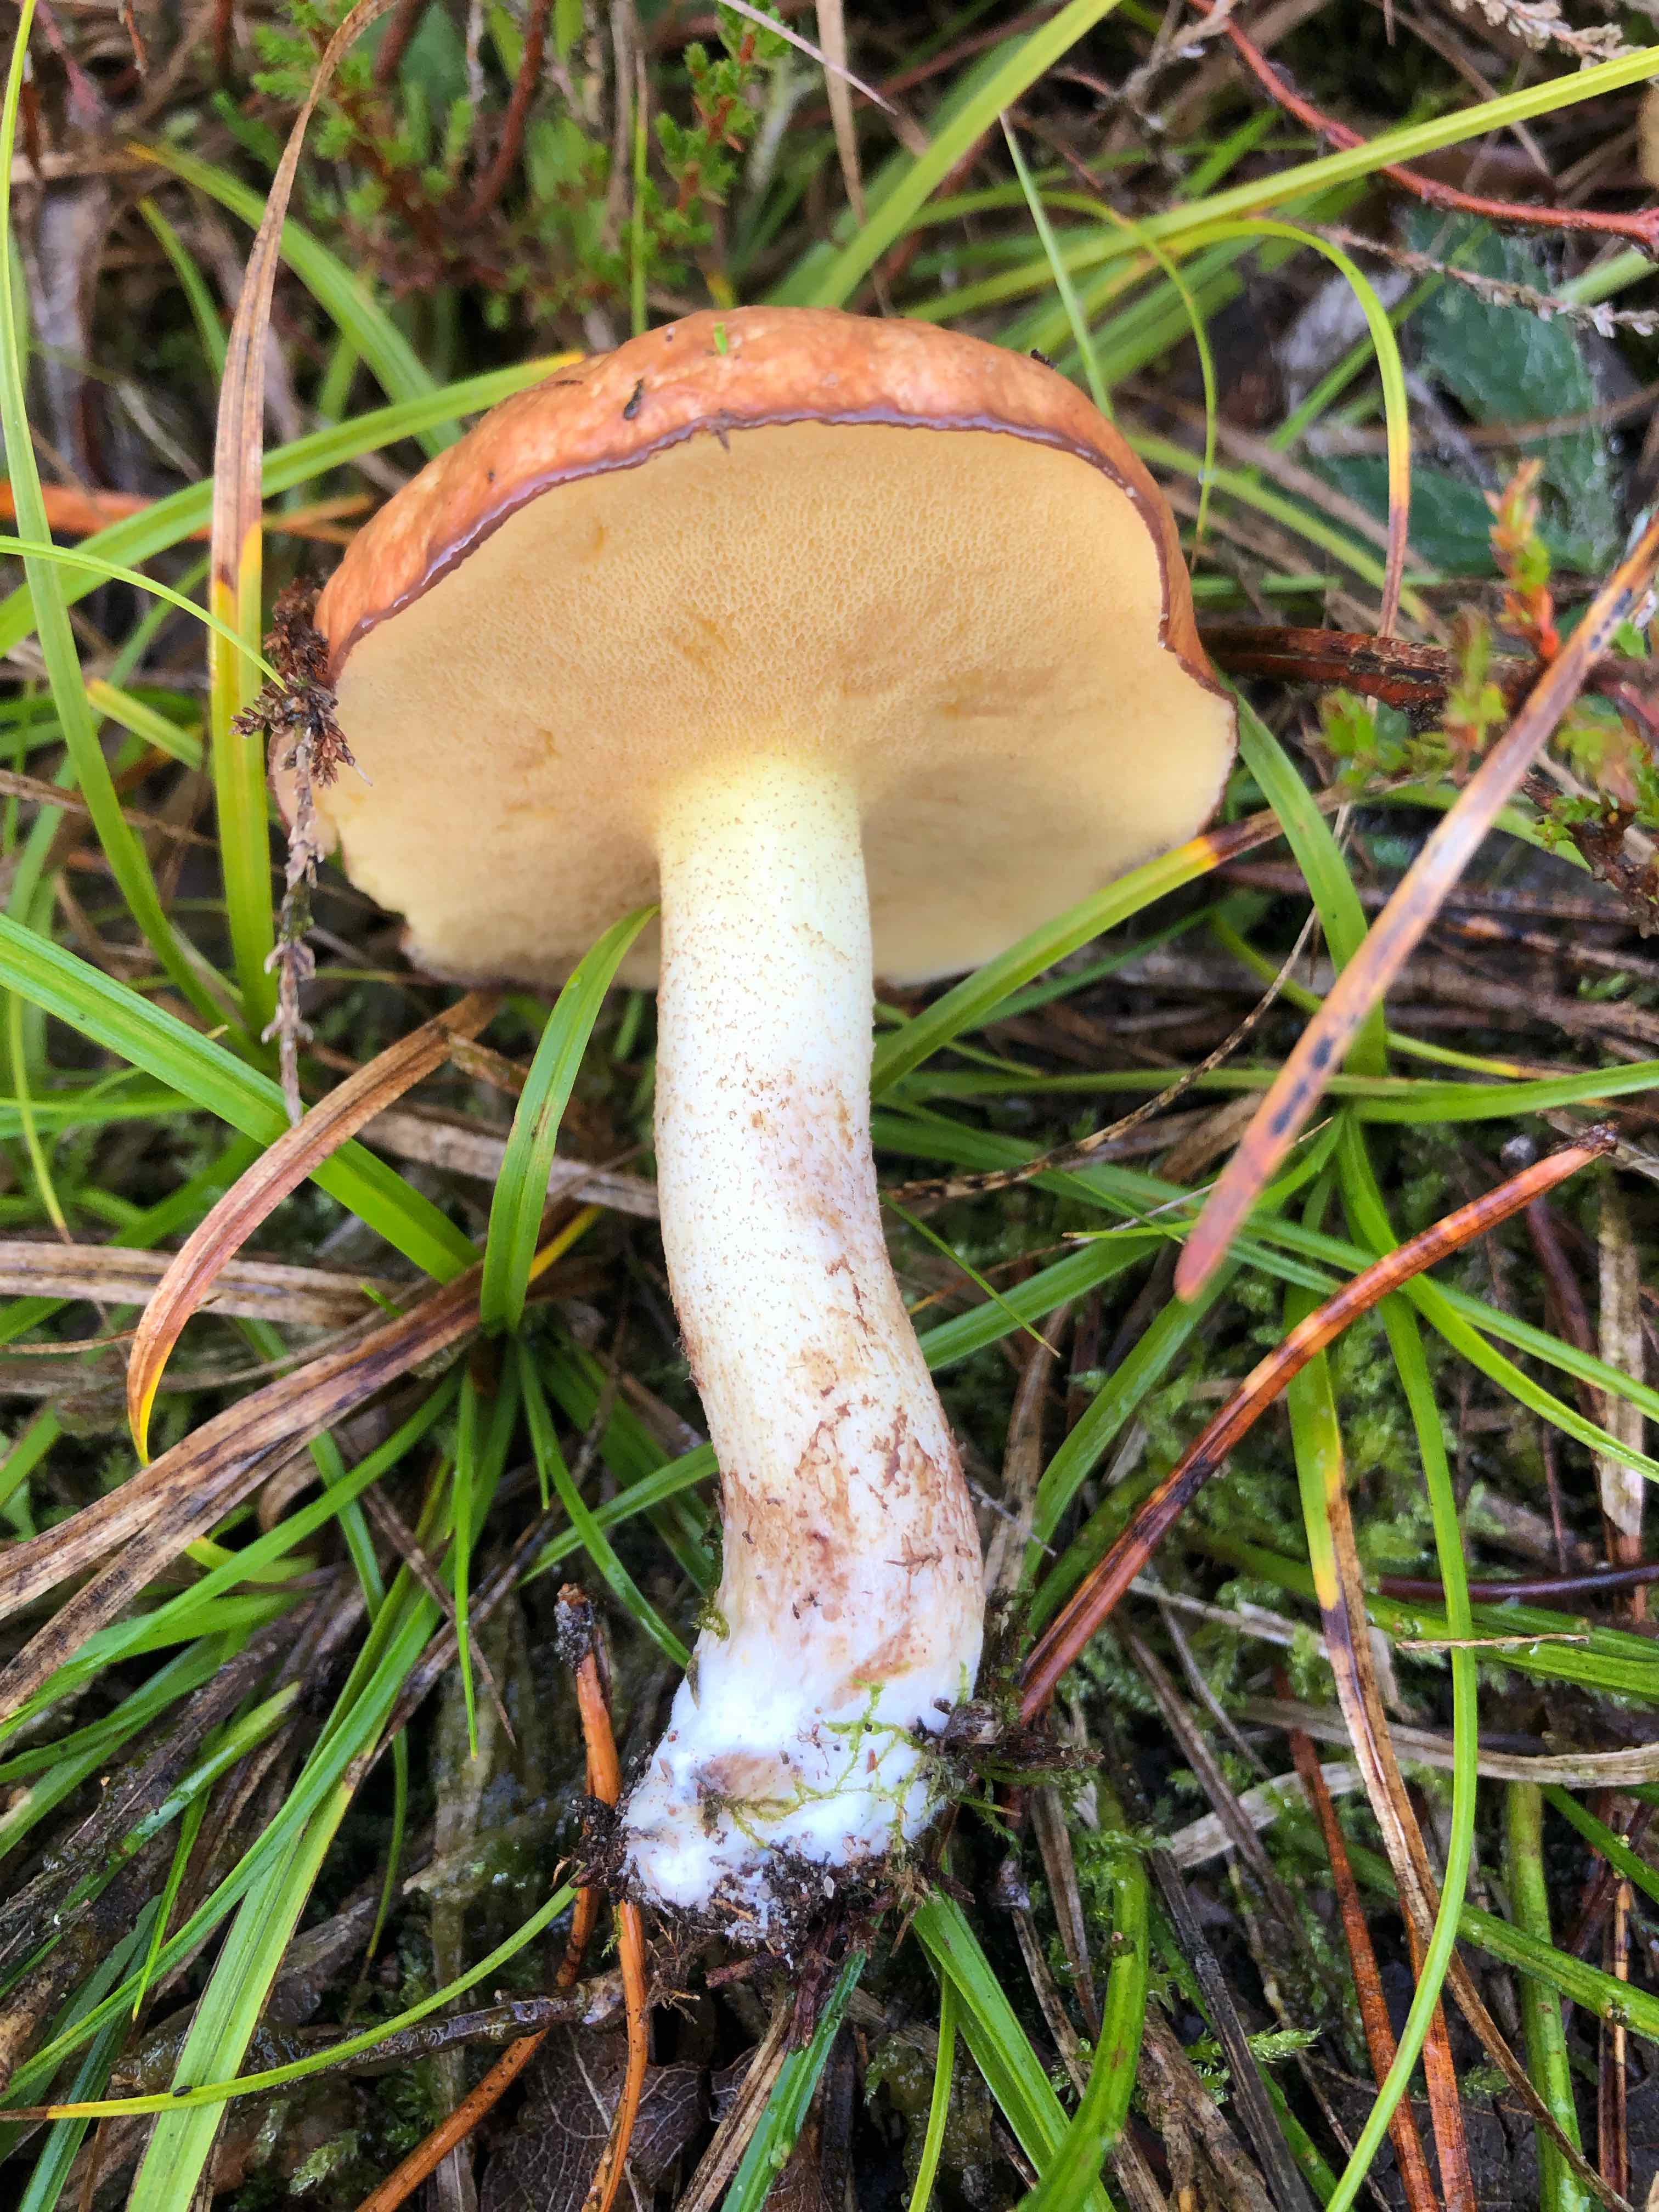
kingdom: Fungi
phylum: Basidiomycota
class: Agaricomycetes
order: Boletales
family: Suillaceae
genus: Suillus
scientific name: Suillus granulatus
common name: kornet slimrørhat
